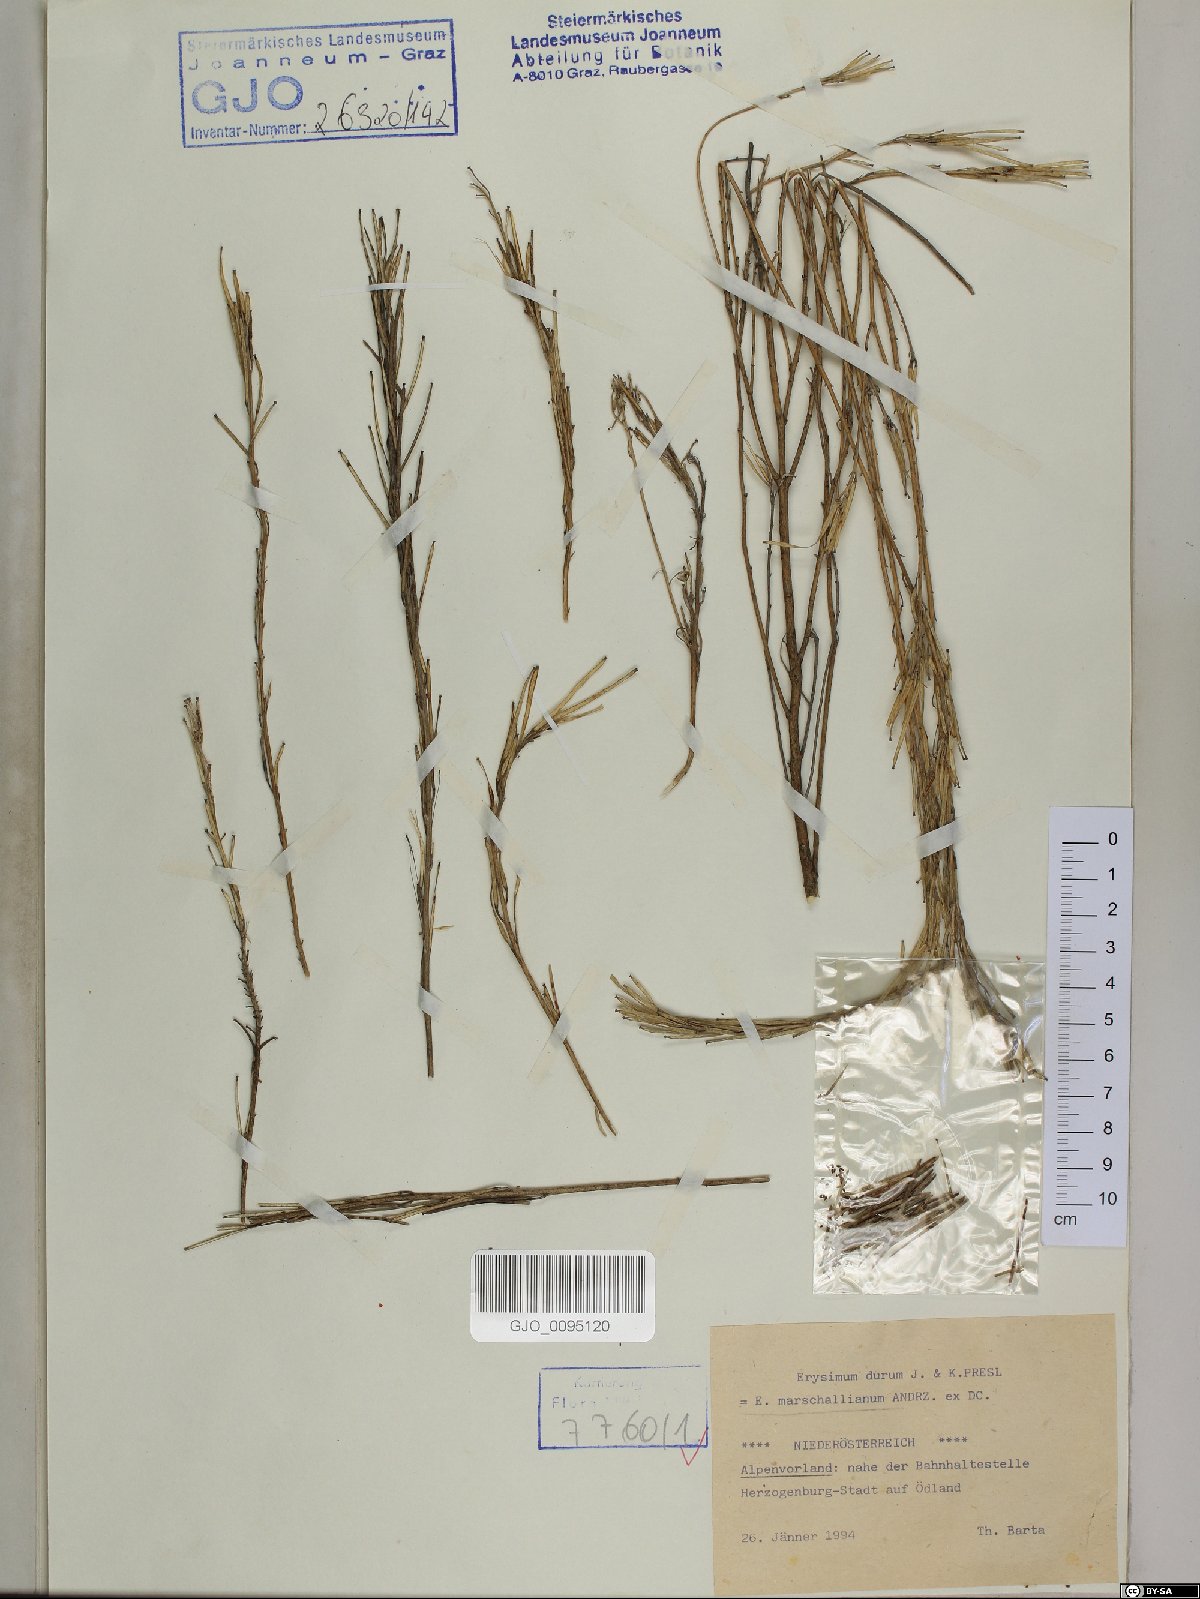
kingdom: Plantae
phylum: Tracheophyta
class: Magnoliopsida
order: Brassicales
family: Brassicaceae
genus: Erysimum
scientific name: Erysimum marschallianum
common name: Hard wallflower
